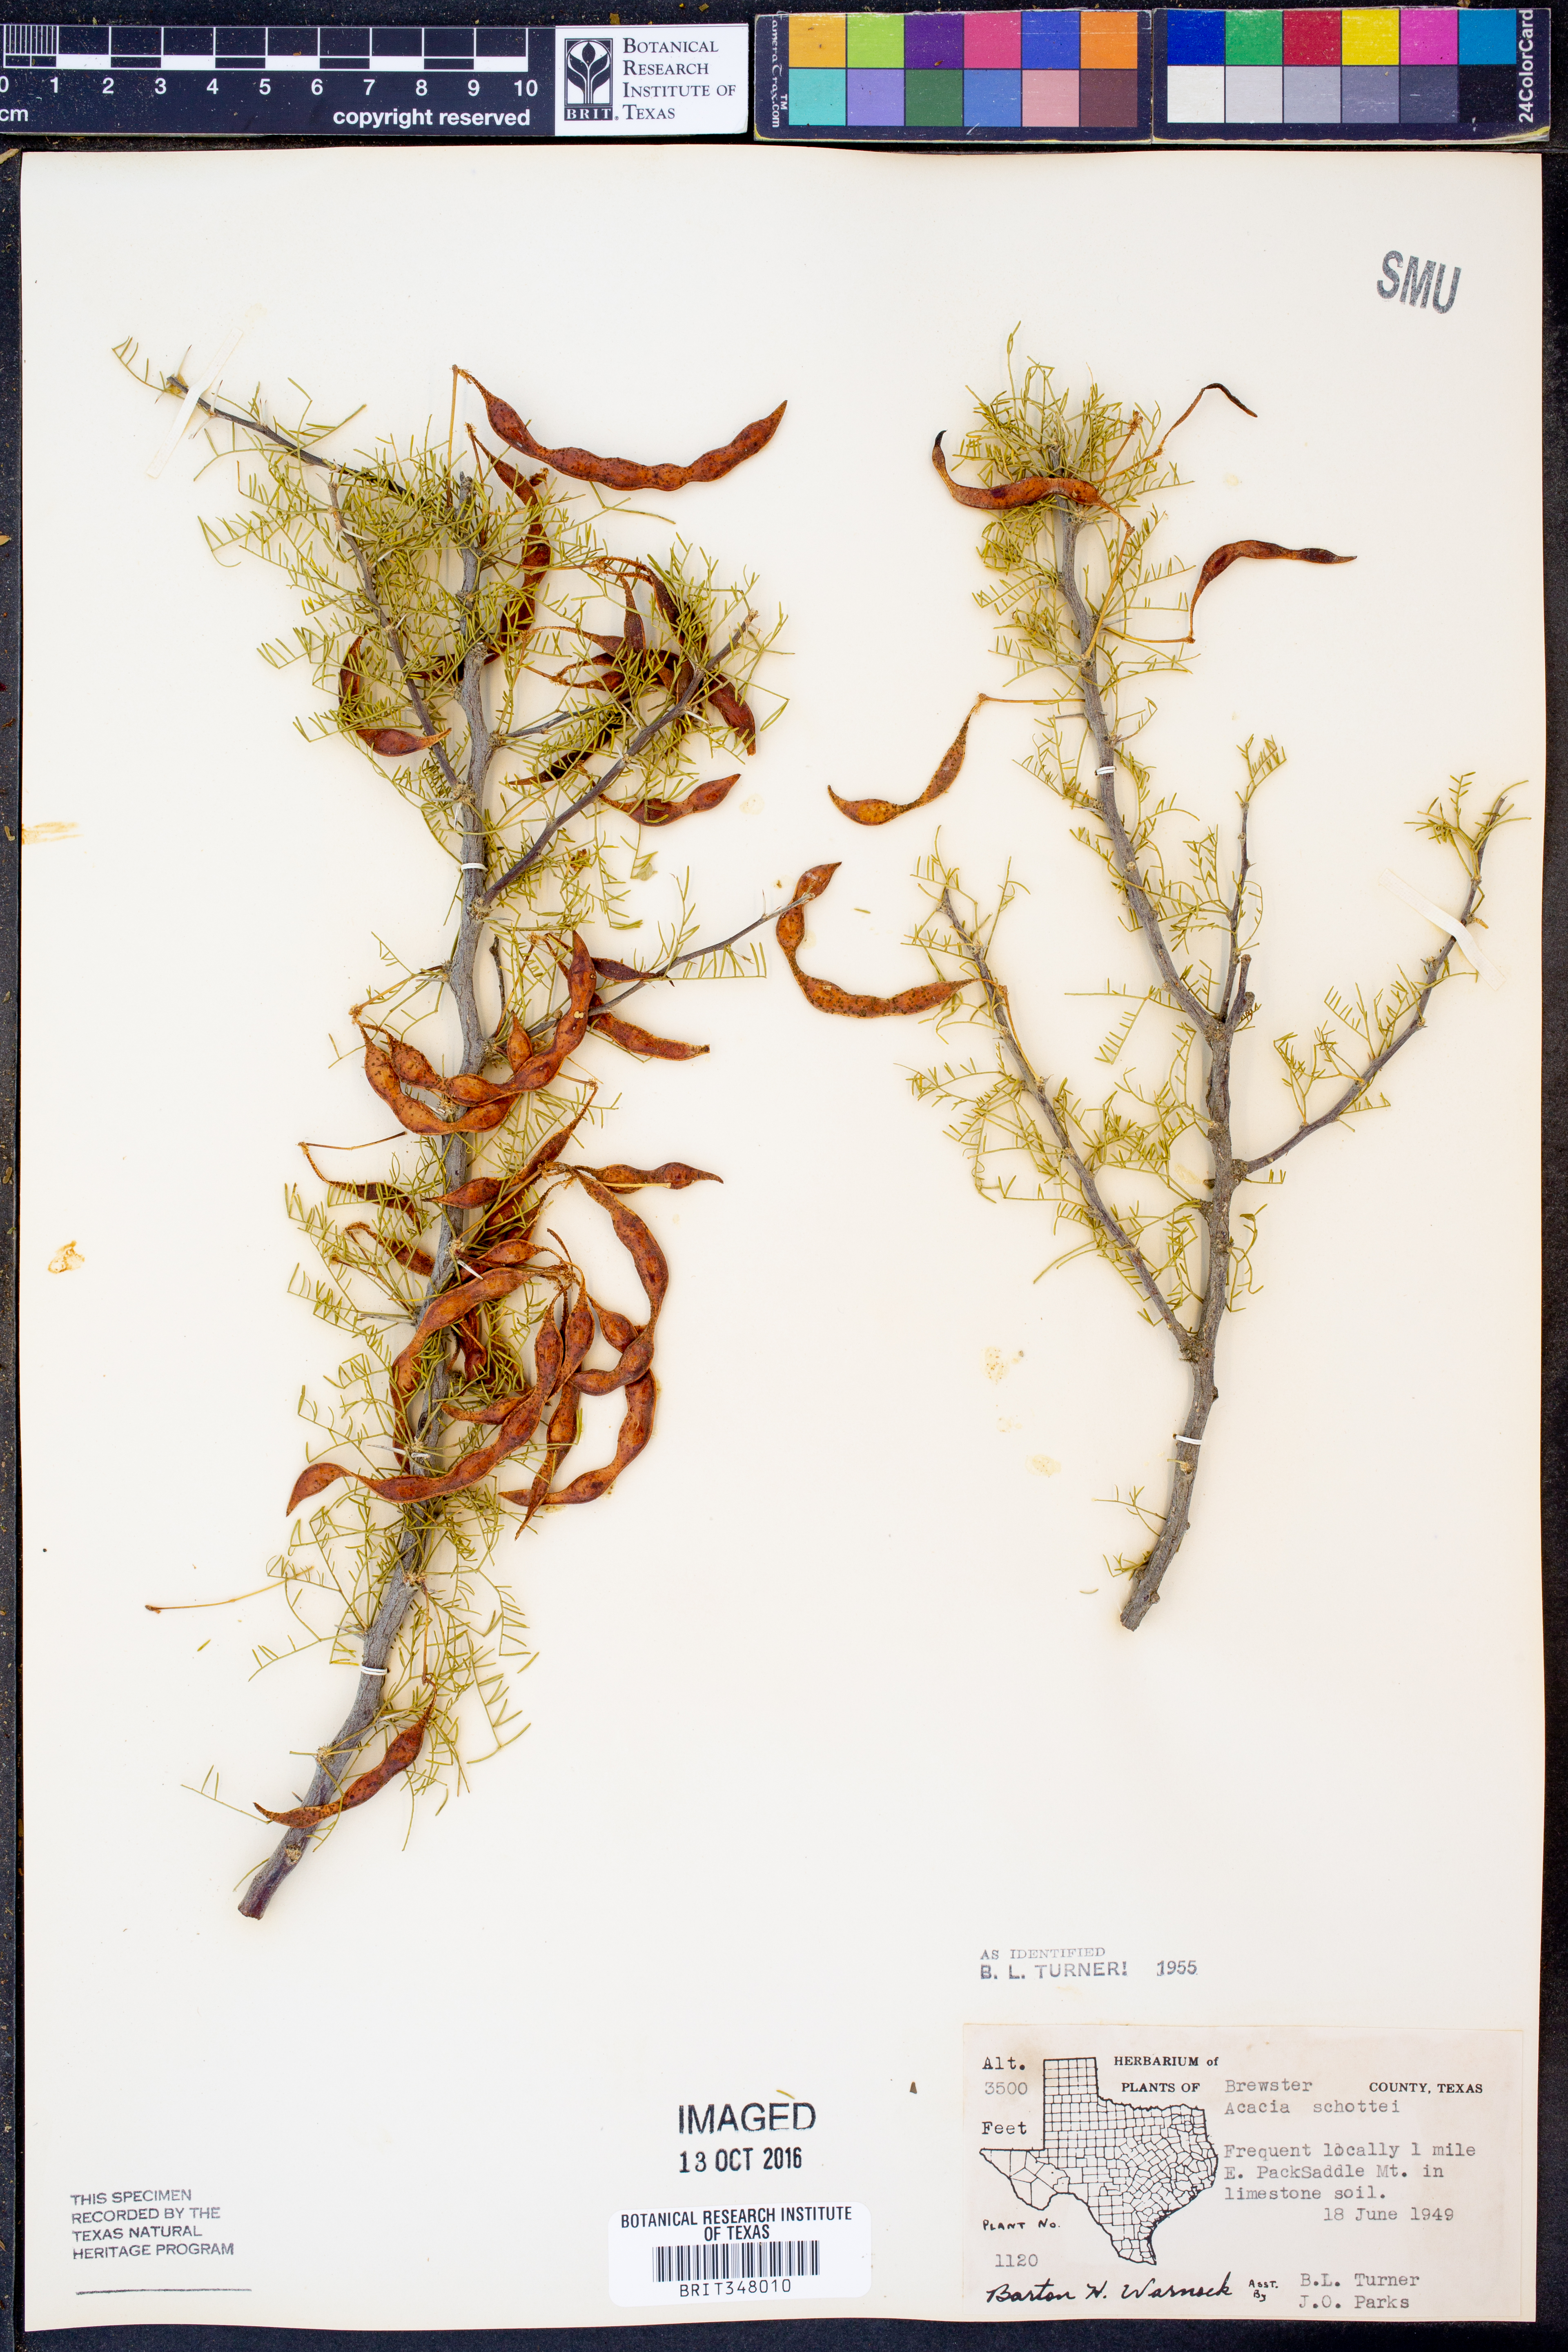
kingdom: Plantae
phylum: Tracheophyta
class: Magnoliopsida
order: Fabales
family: Fabaceae
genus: Vachellia
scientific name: Vachellia schottii
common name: Schott acacia
